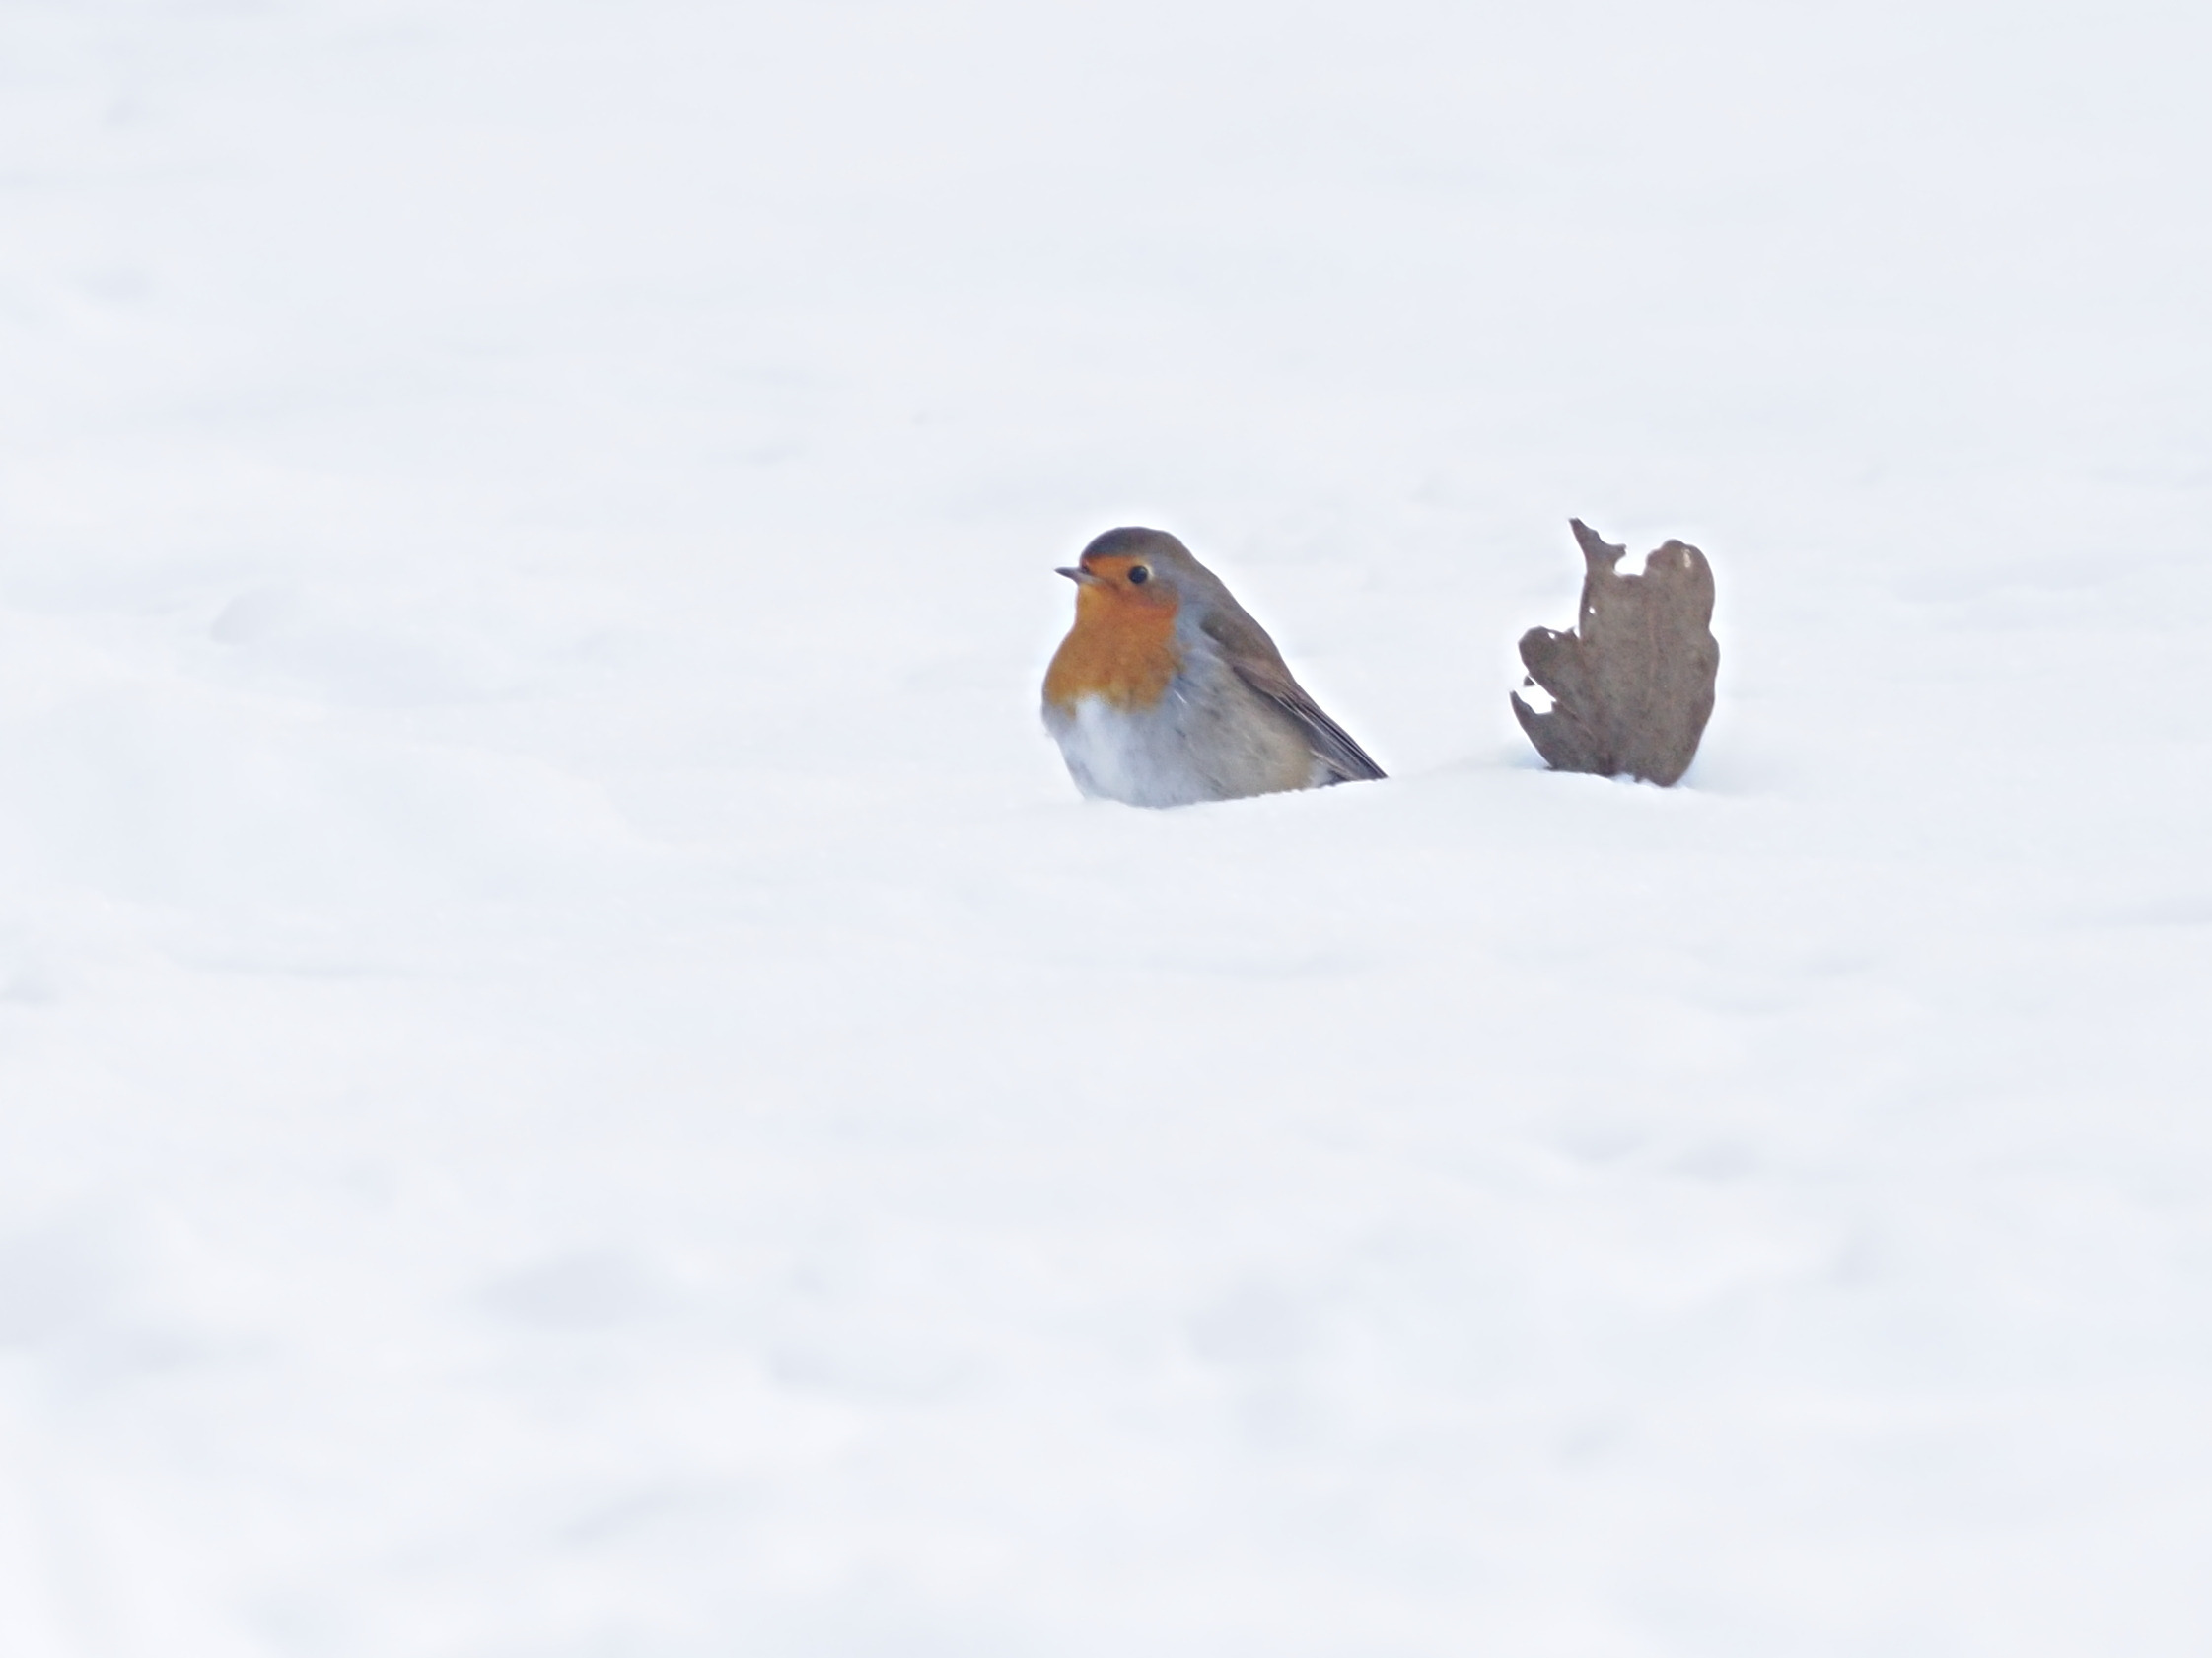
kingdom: Animalia
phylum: Chordata
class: Aves
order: Passeriformes
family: Muscicapidae
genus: Erithacus
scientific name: Erithacus rubecula
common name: Rødhals/rødkælk
